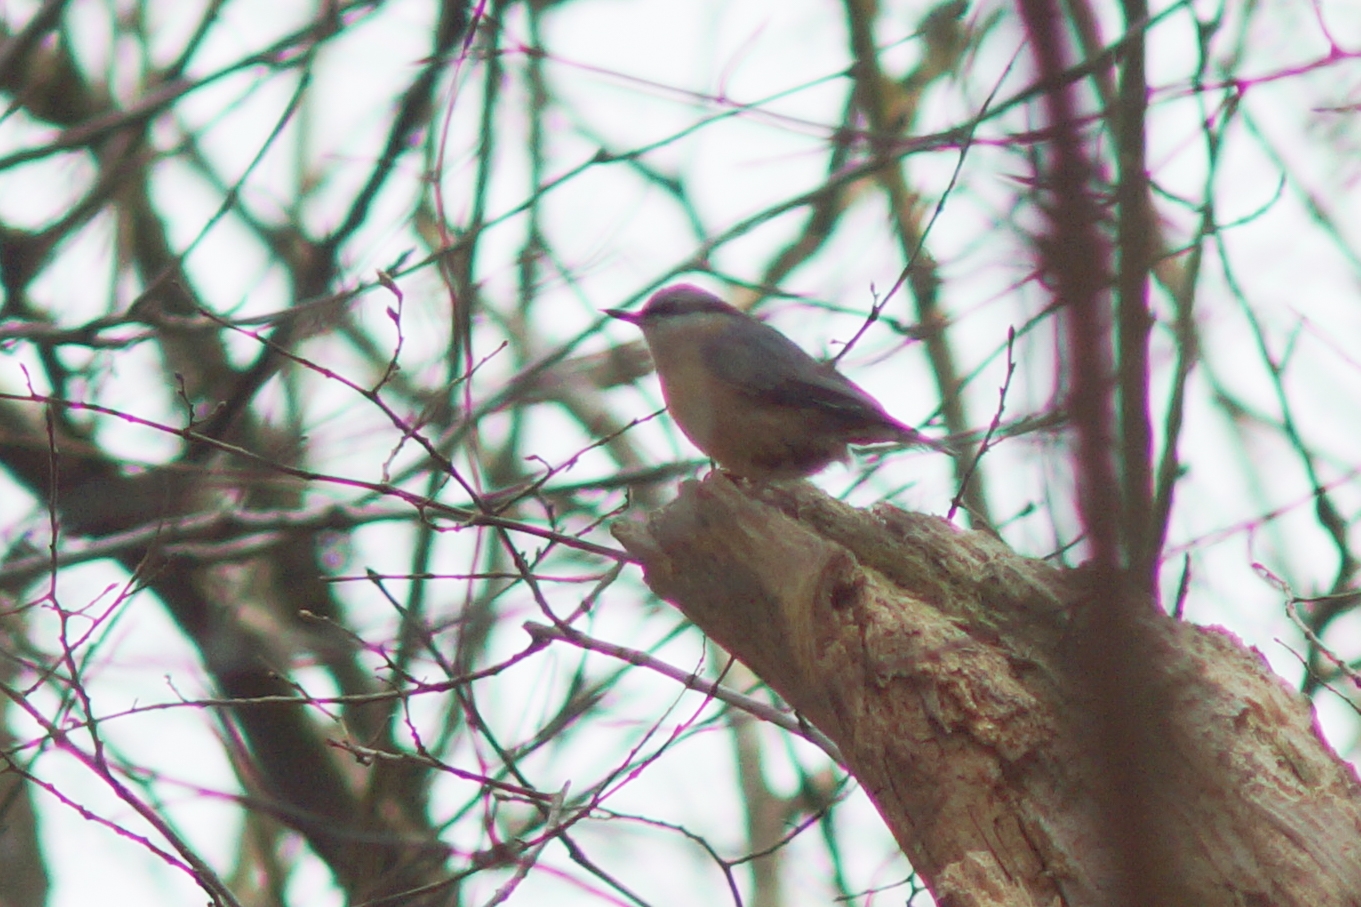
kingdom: Animalia
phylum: Chordata
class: Aves
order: Passeriformes
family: Sittidae
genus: Sitta
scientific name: Sitta europaea
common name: Spætmejse
